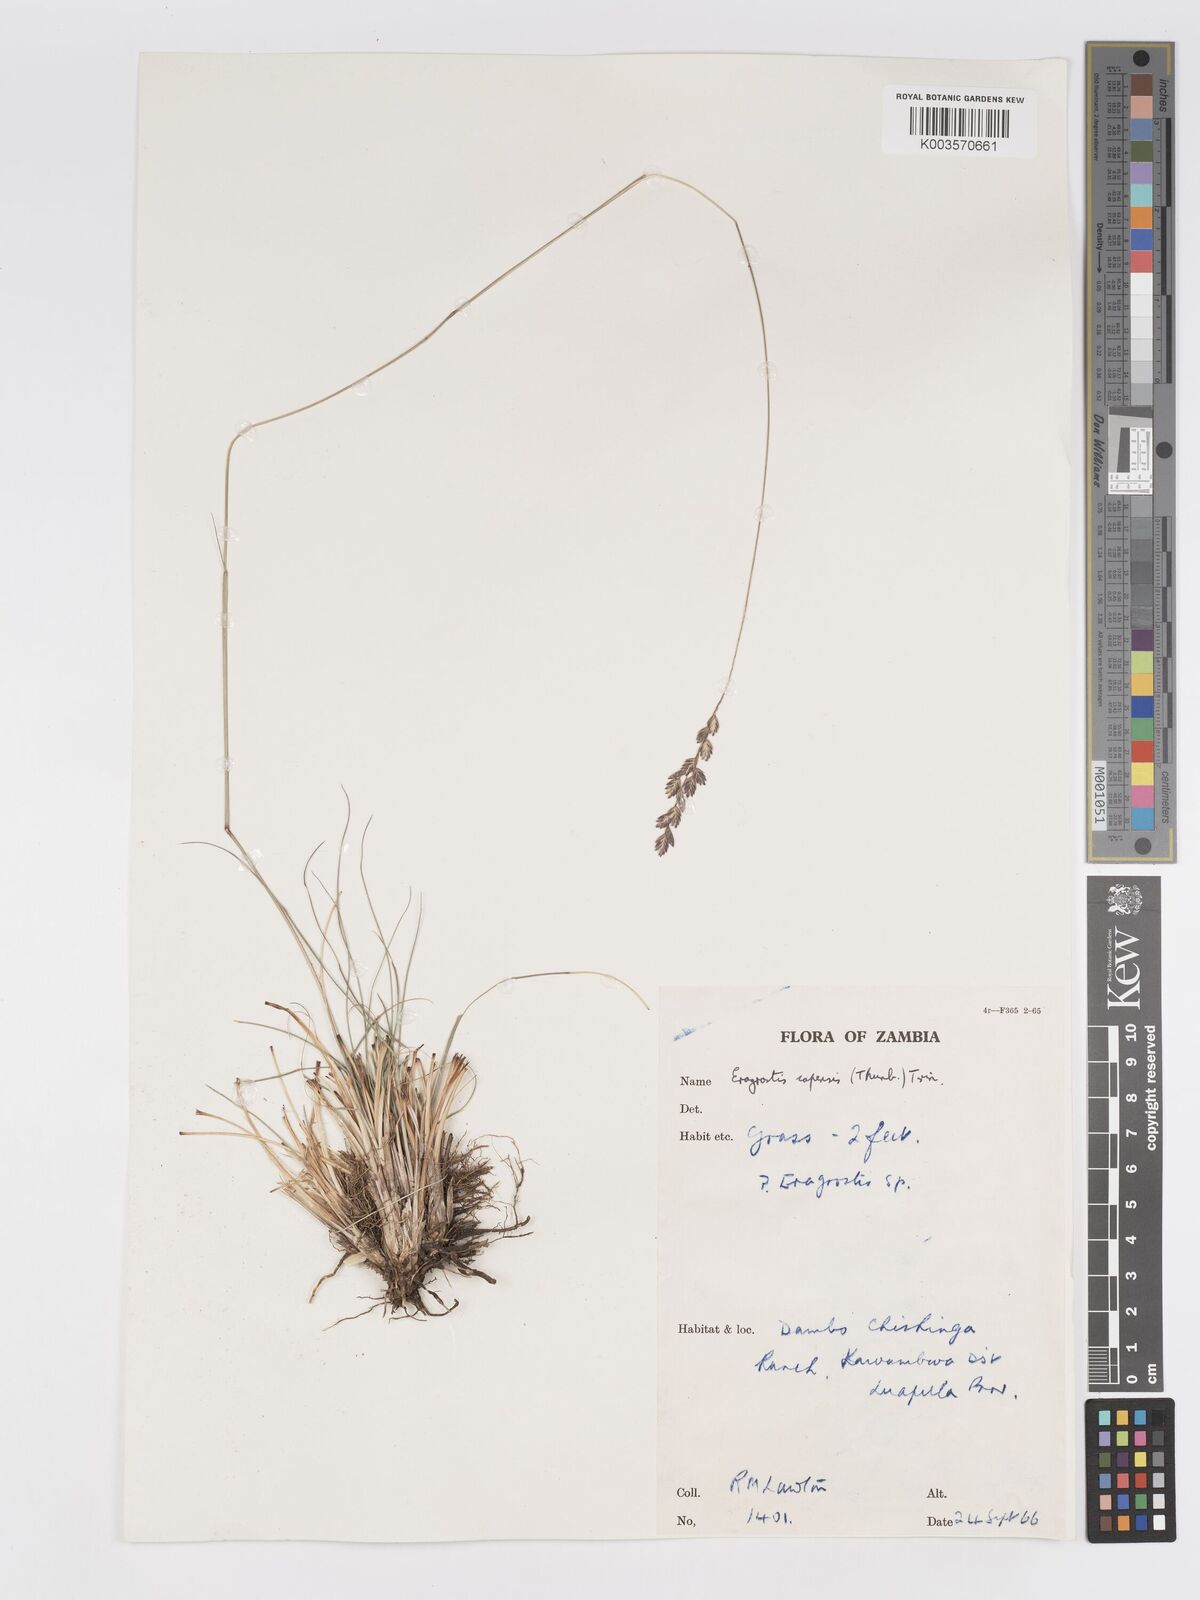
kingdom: Plantae
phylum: Tracheophyta
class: Liliopsida
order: Poales
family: Poaceae
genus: Eragrostis
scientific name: Eragrostis capensis
